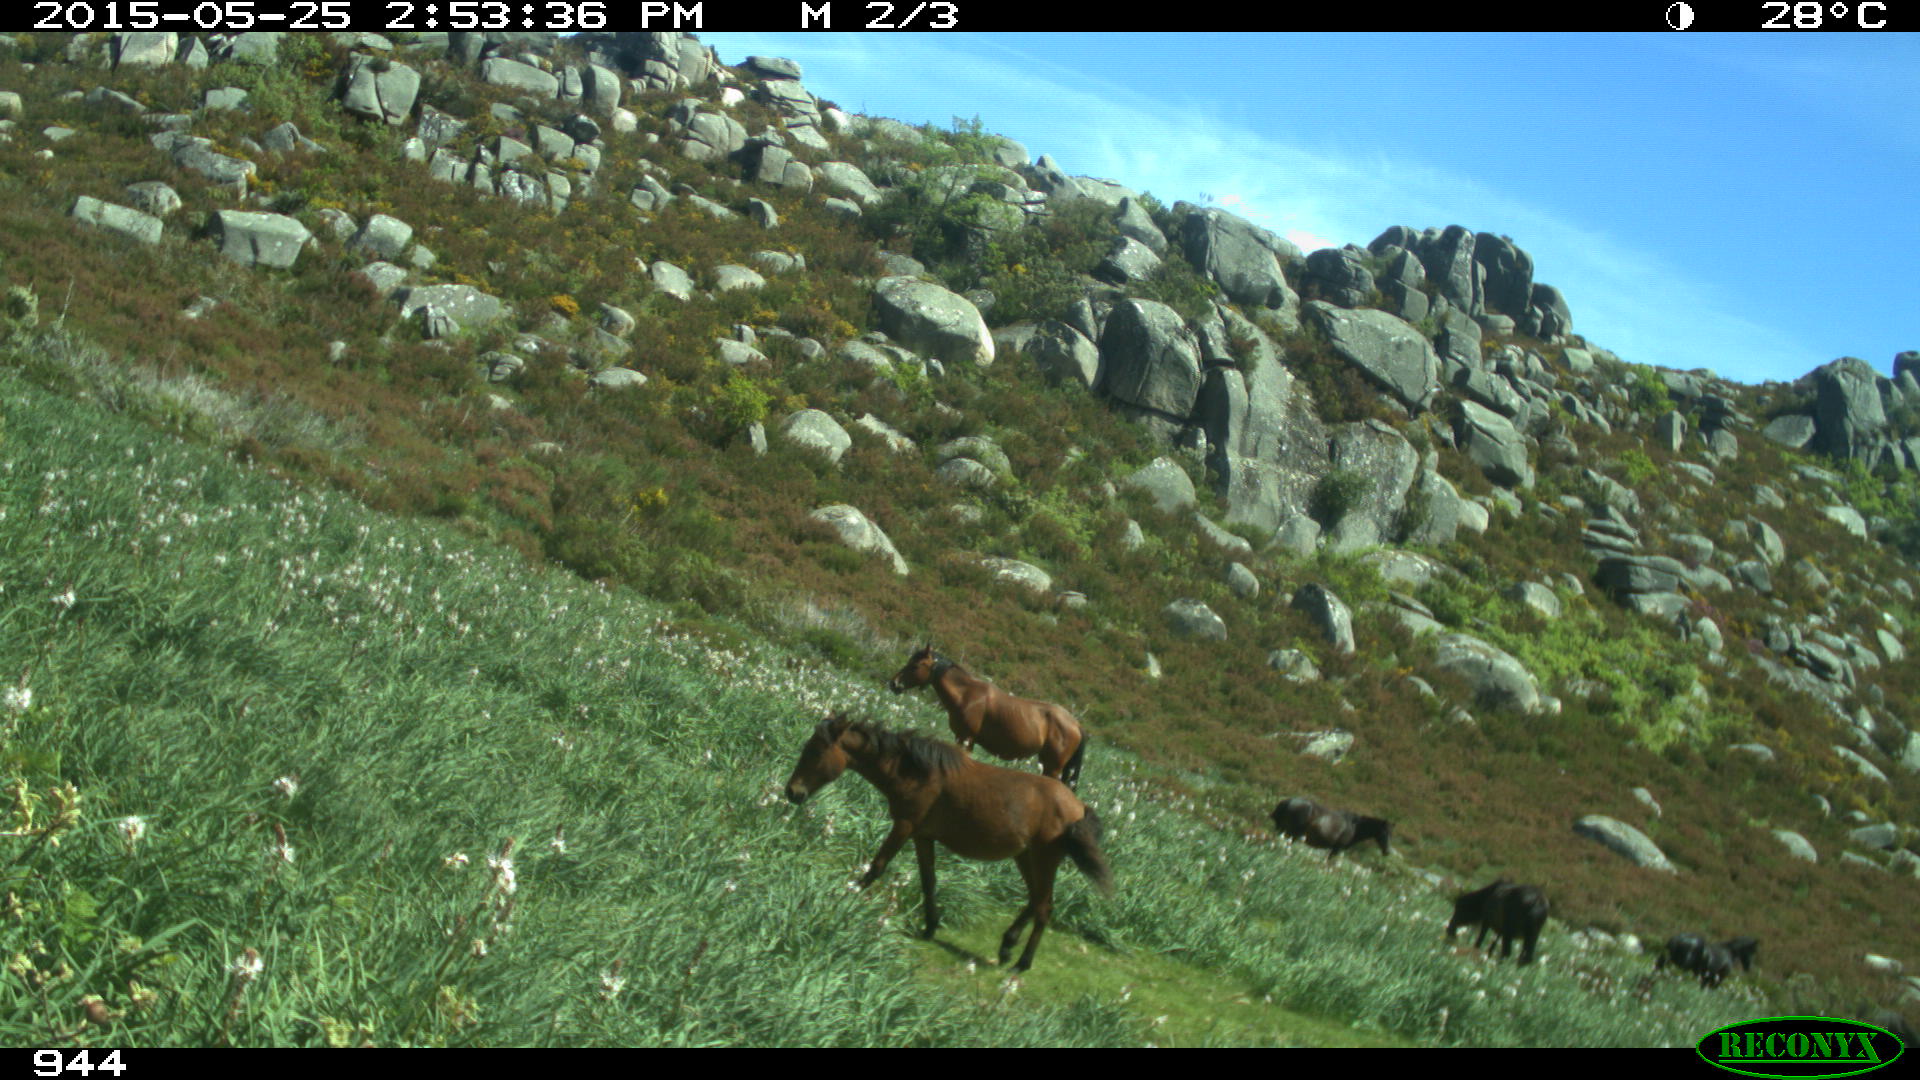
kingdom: Animalia
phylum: Chordata
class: Mammalia
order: Perissodactyla
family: Equidae
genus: Equus
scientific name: Equus caballus
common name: Horse
